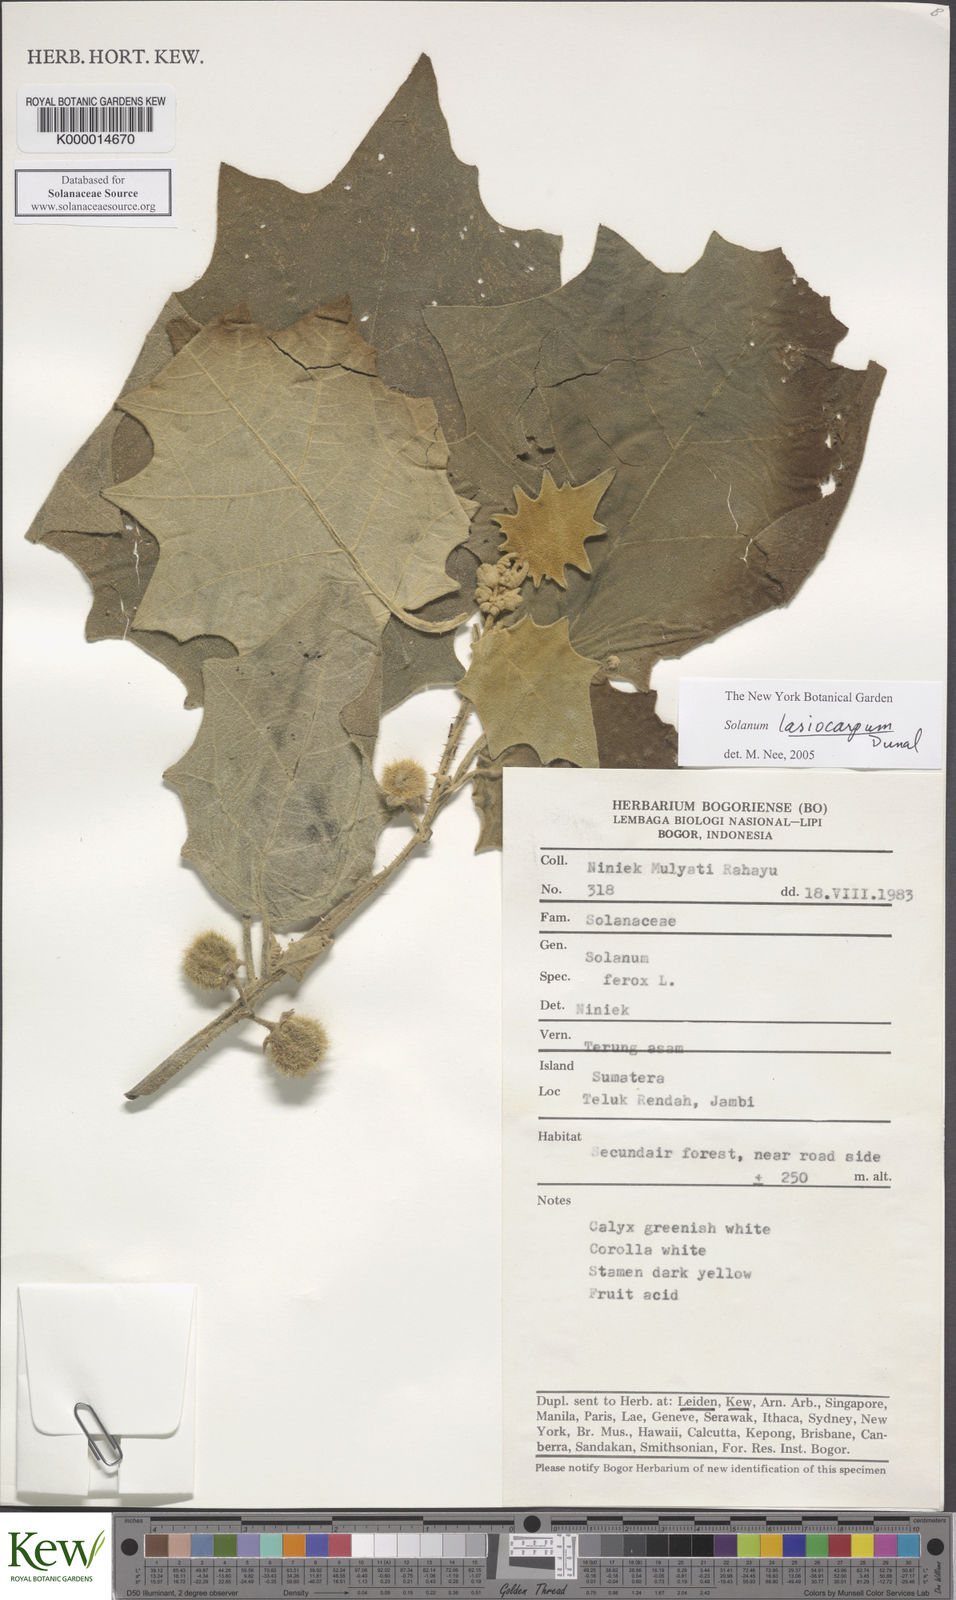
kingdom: Plantae
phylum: Tracheophyta
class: Magnoliopsida
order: Solanales
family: Solanaceae
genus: Solanum
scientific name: Solanum lasiocarpum
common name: Indian nightshade
